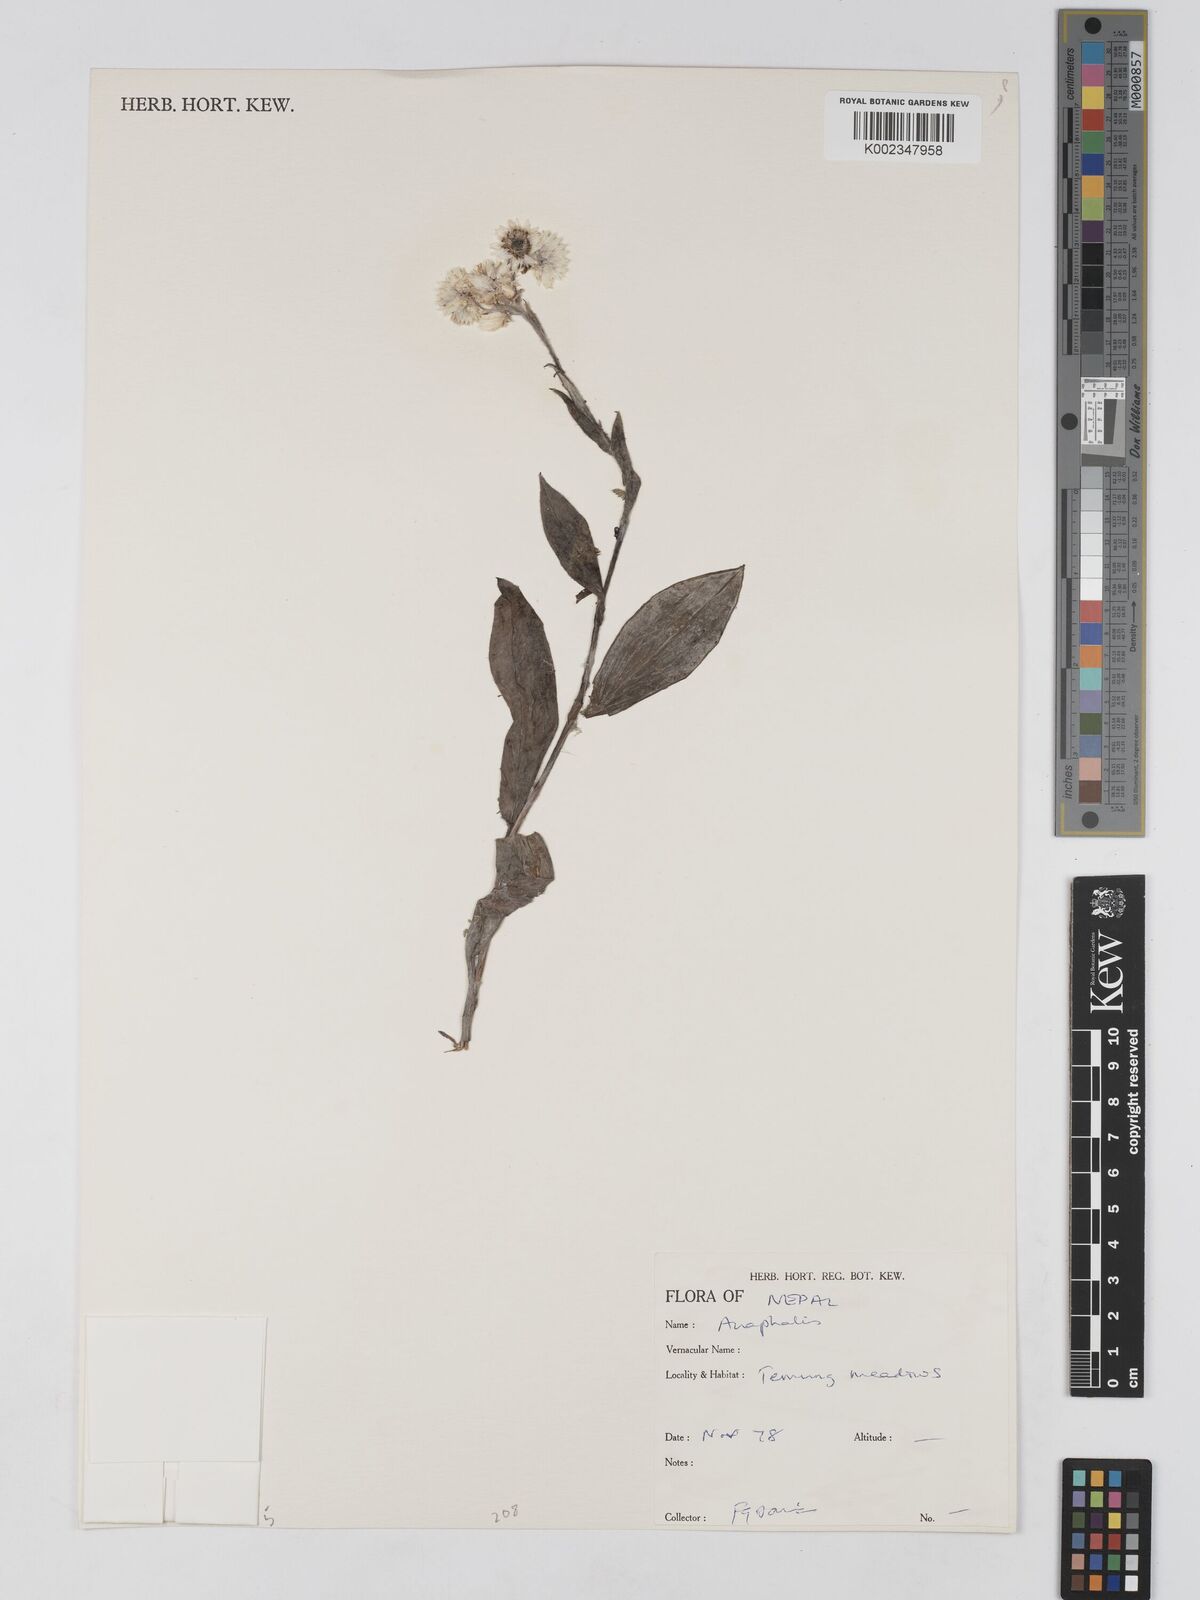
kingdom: Plantae
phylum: Tracheophyta
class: Magnoliopsida
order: Asterales
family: Asteraceae
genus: Anaphalis
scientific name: Anaphalis
